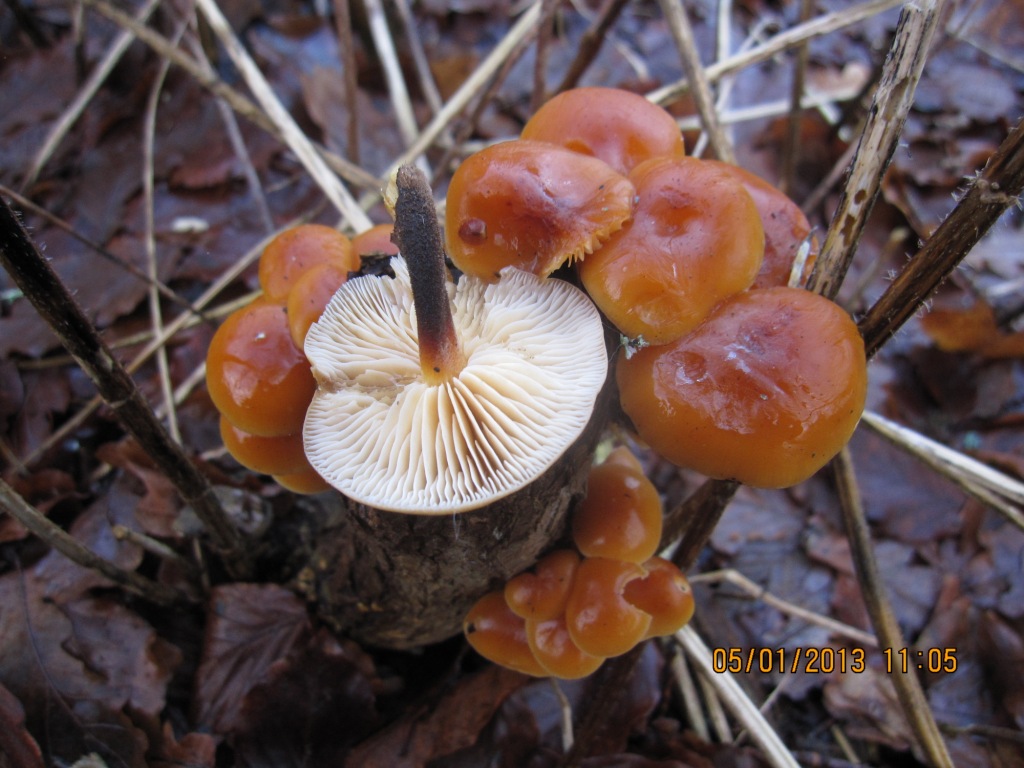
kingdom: Fungi
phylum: Basidiomycota
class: Agaricomycetes
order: Agaricales
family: Physalacriaceae
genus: Flammulina
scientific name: Flammulina velutipes
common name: gul fløjlsfod
